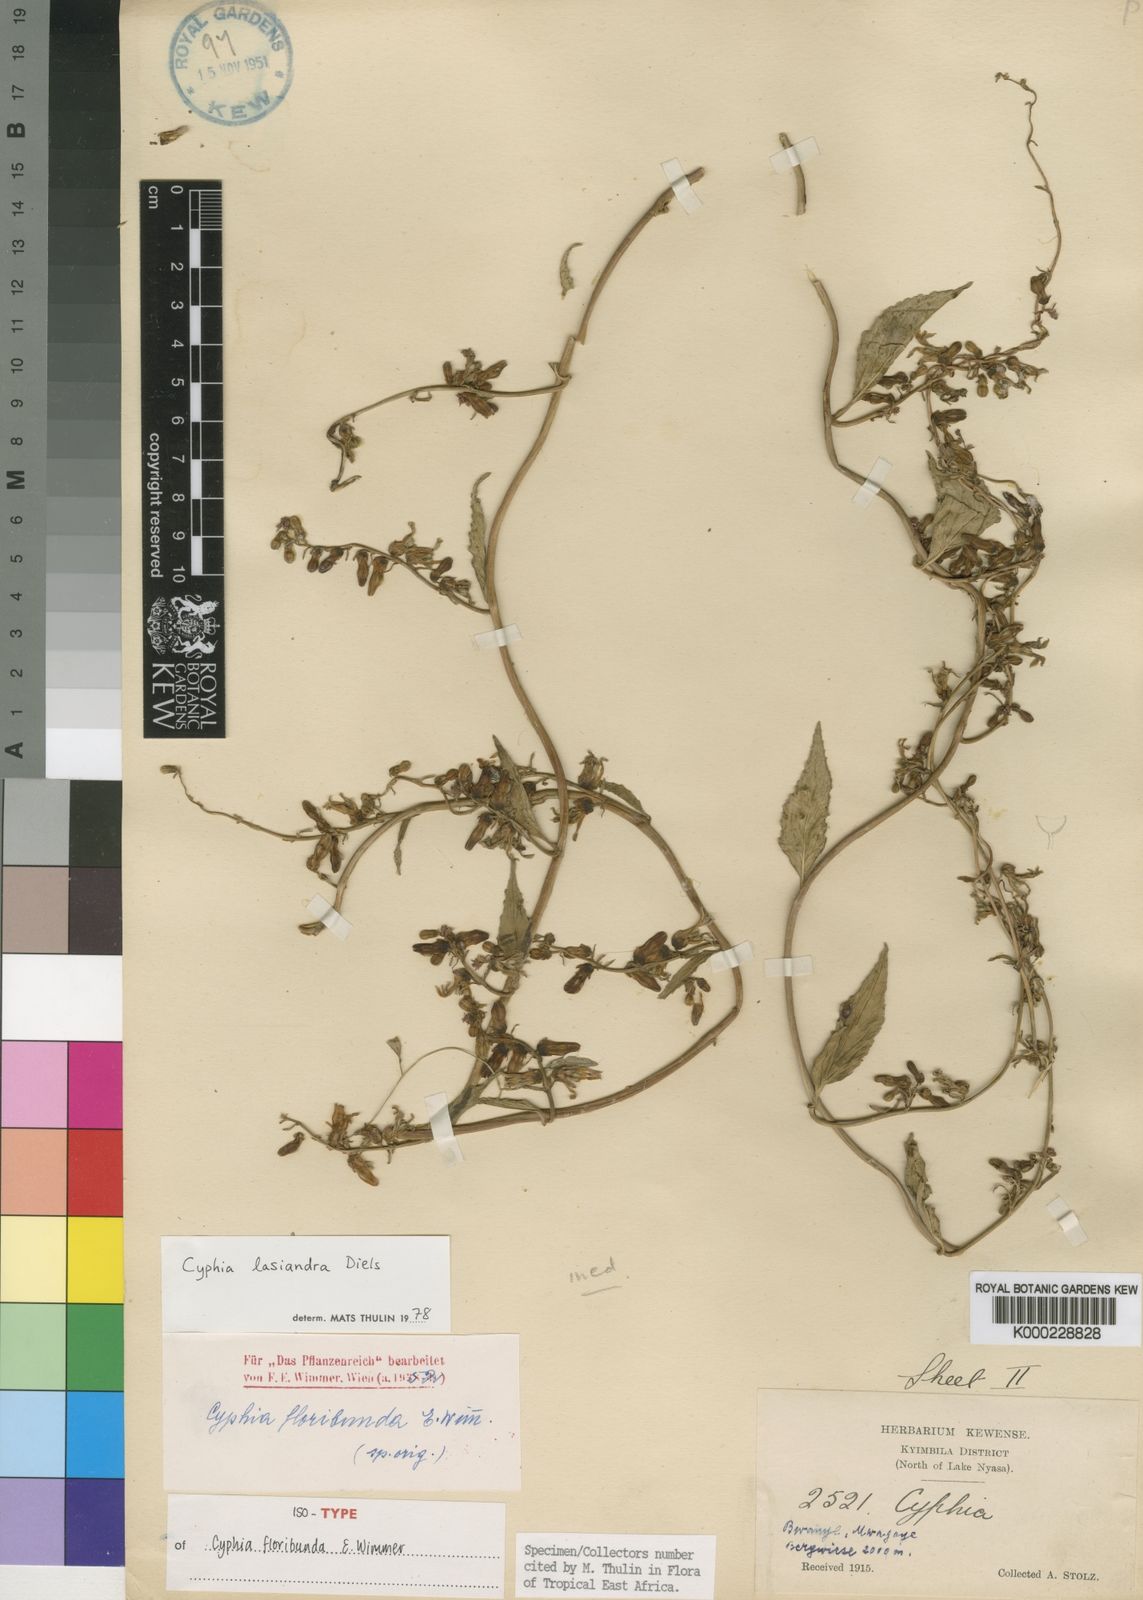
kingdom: Plantae
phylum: Tracheophyta
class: Magnoliopsida
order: Asterales
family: Campanulaceae
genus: Cyphia
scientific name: Cyphia lasiandra
